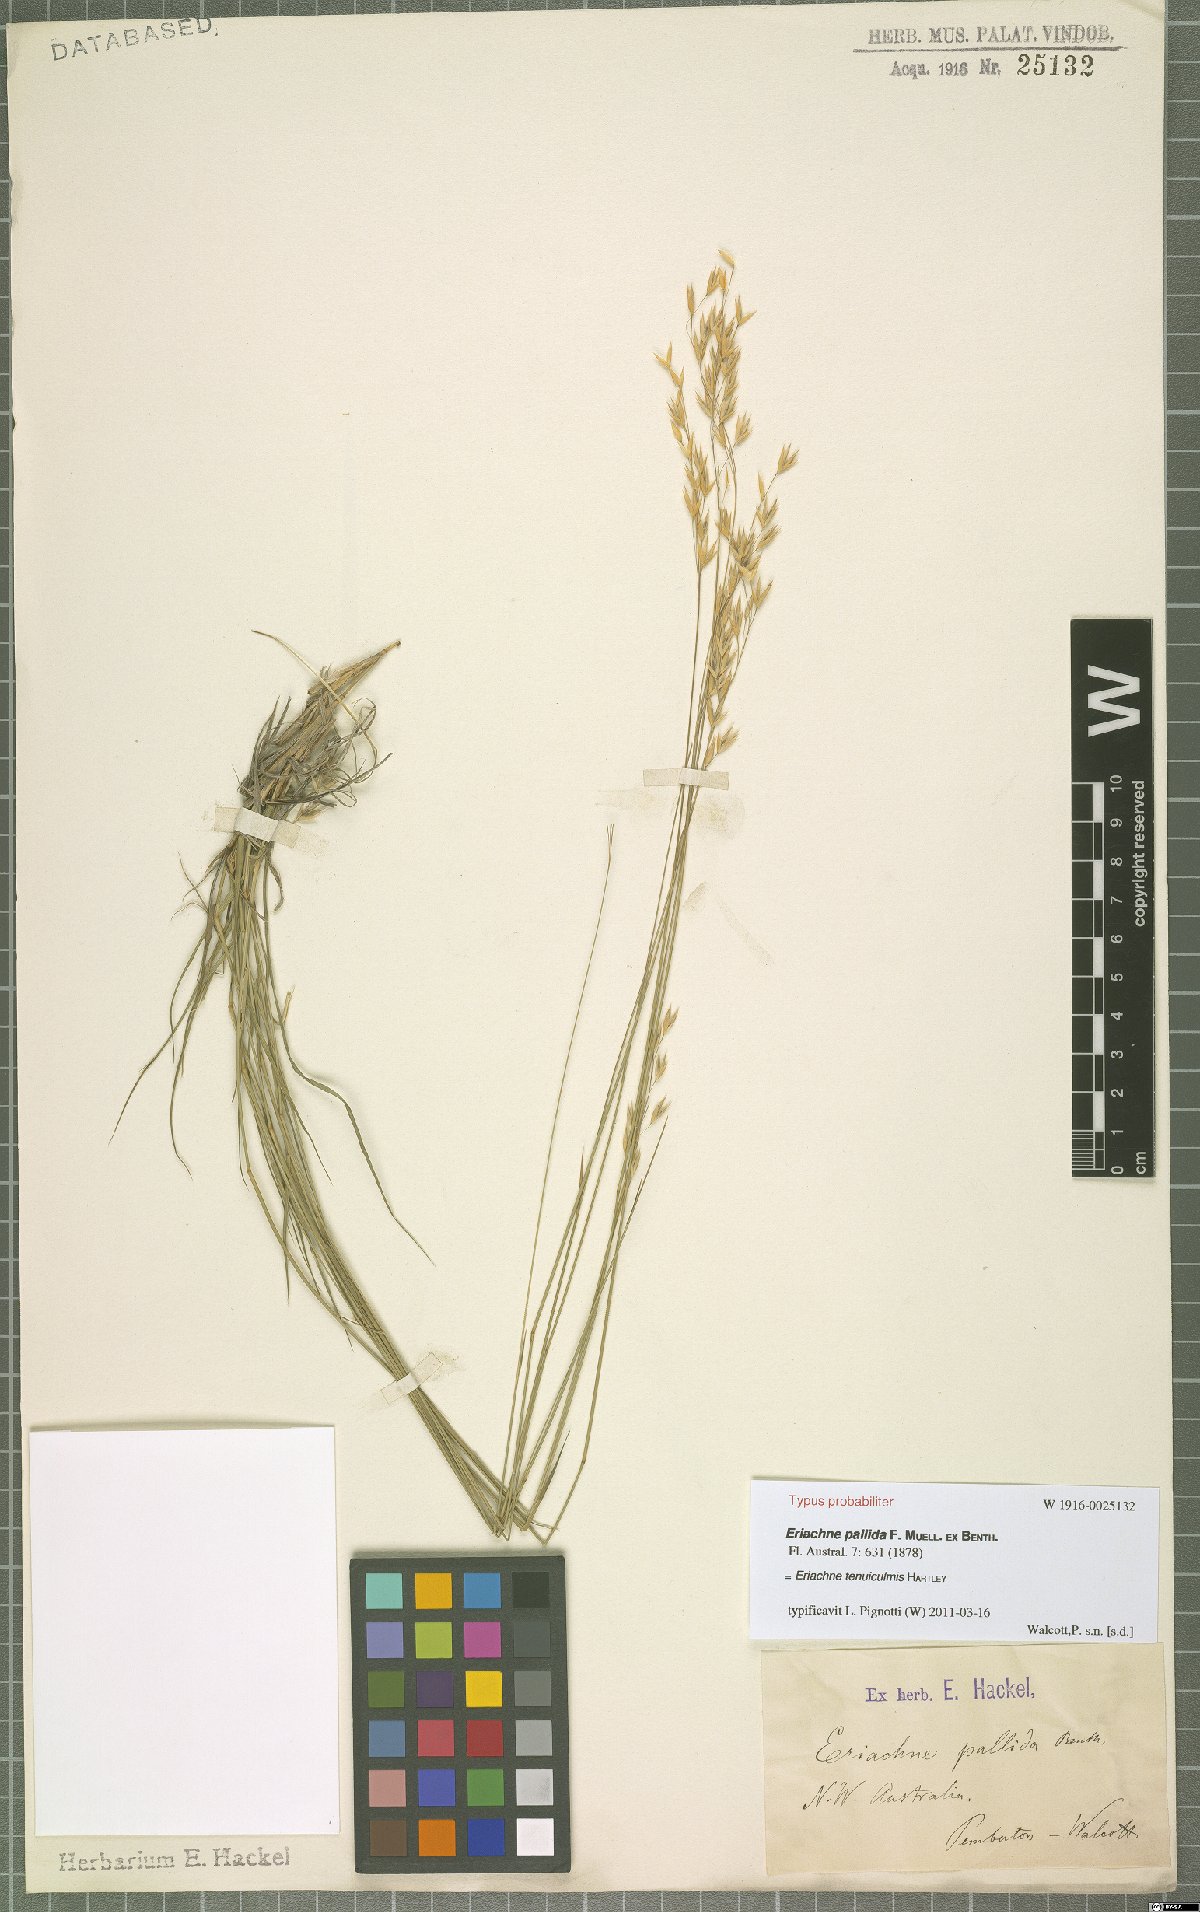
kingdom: Plantae
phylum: Tracheophyta
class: Liliopsida
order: Poales
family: Poaceae
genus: Eriachne
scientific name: Eriachne tenuiculmis
